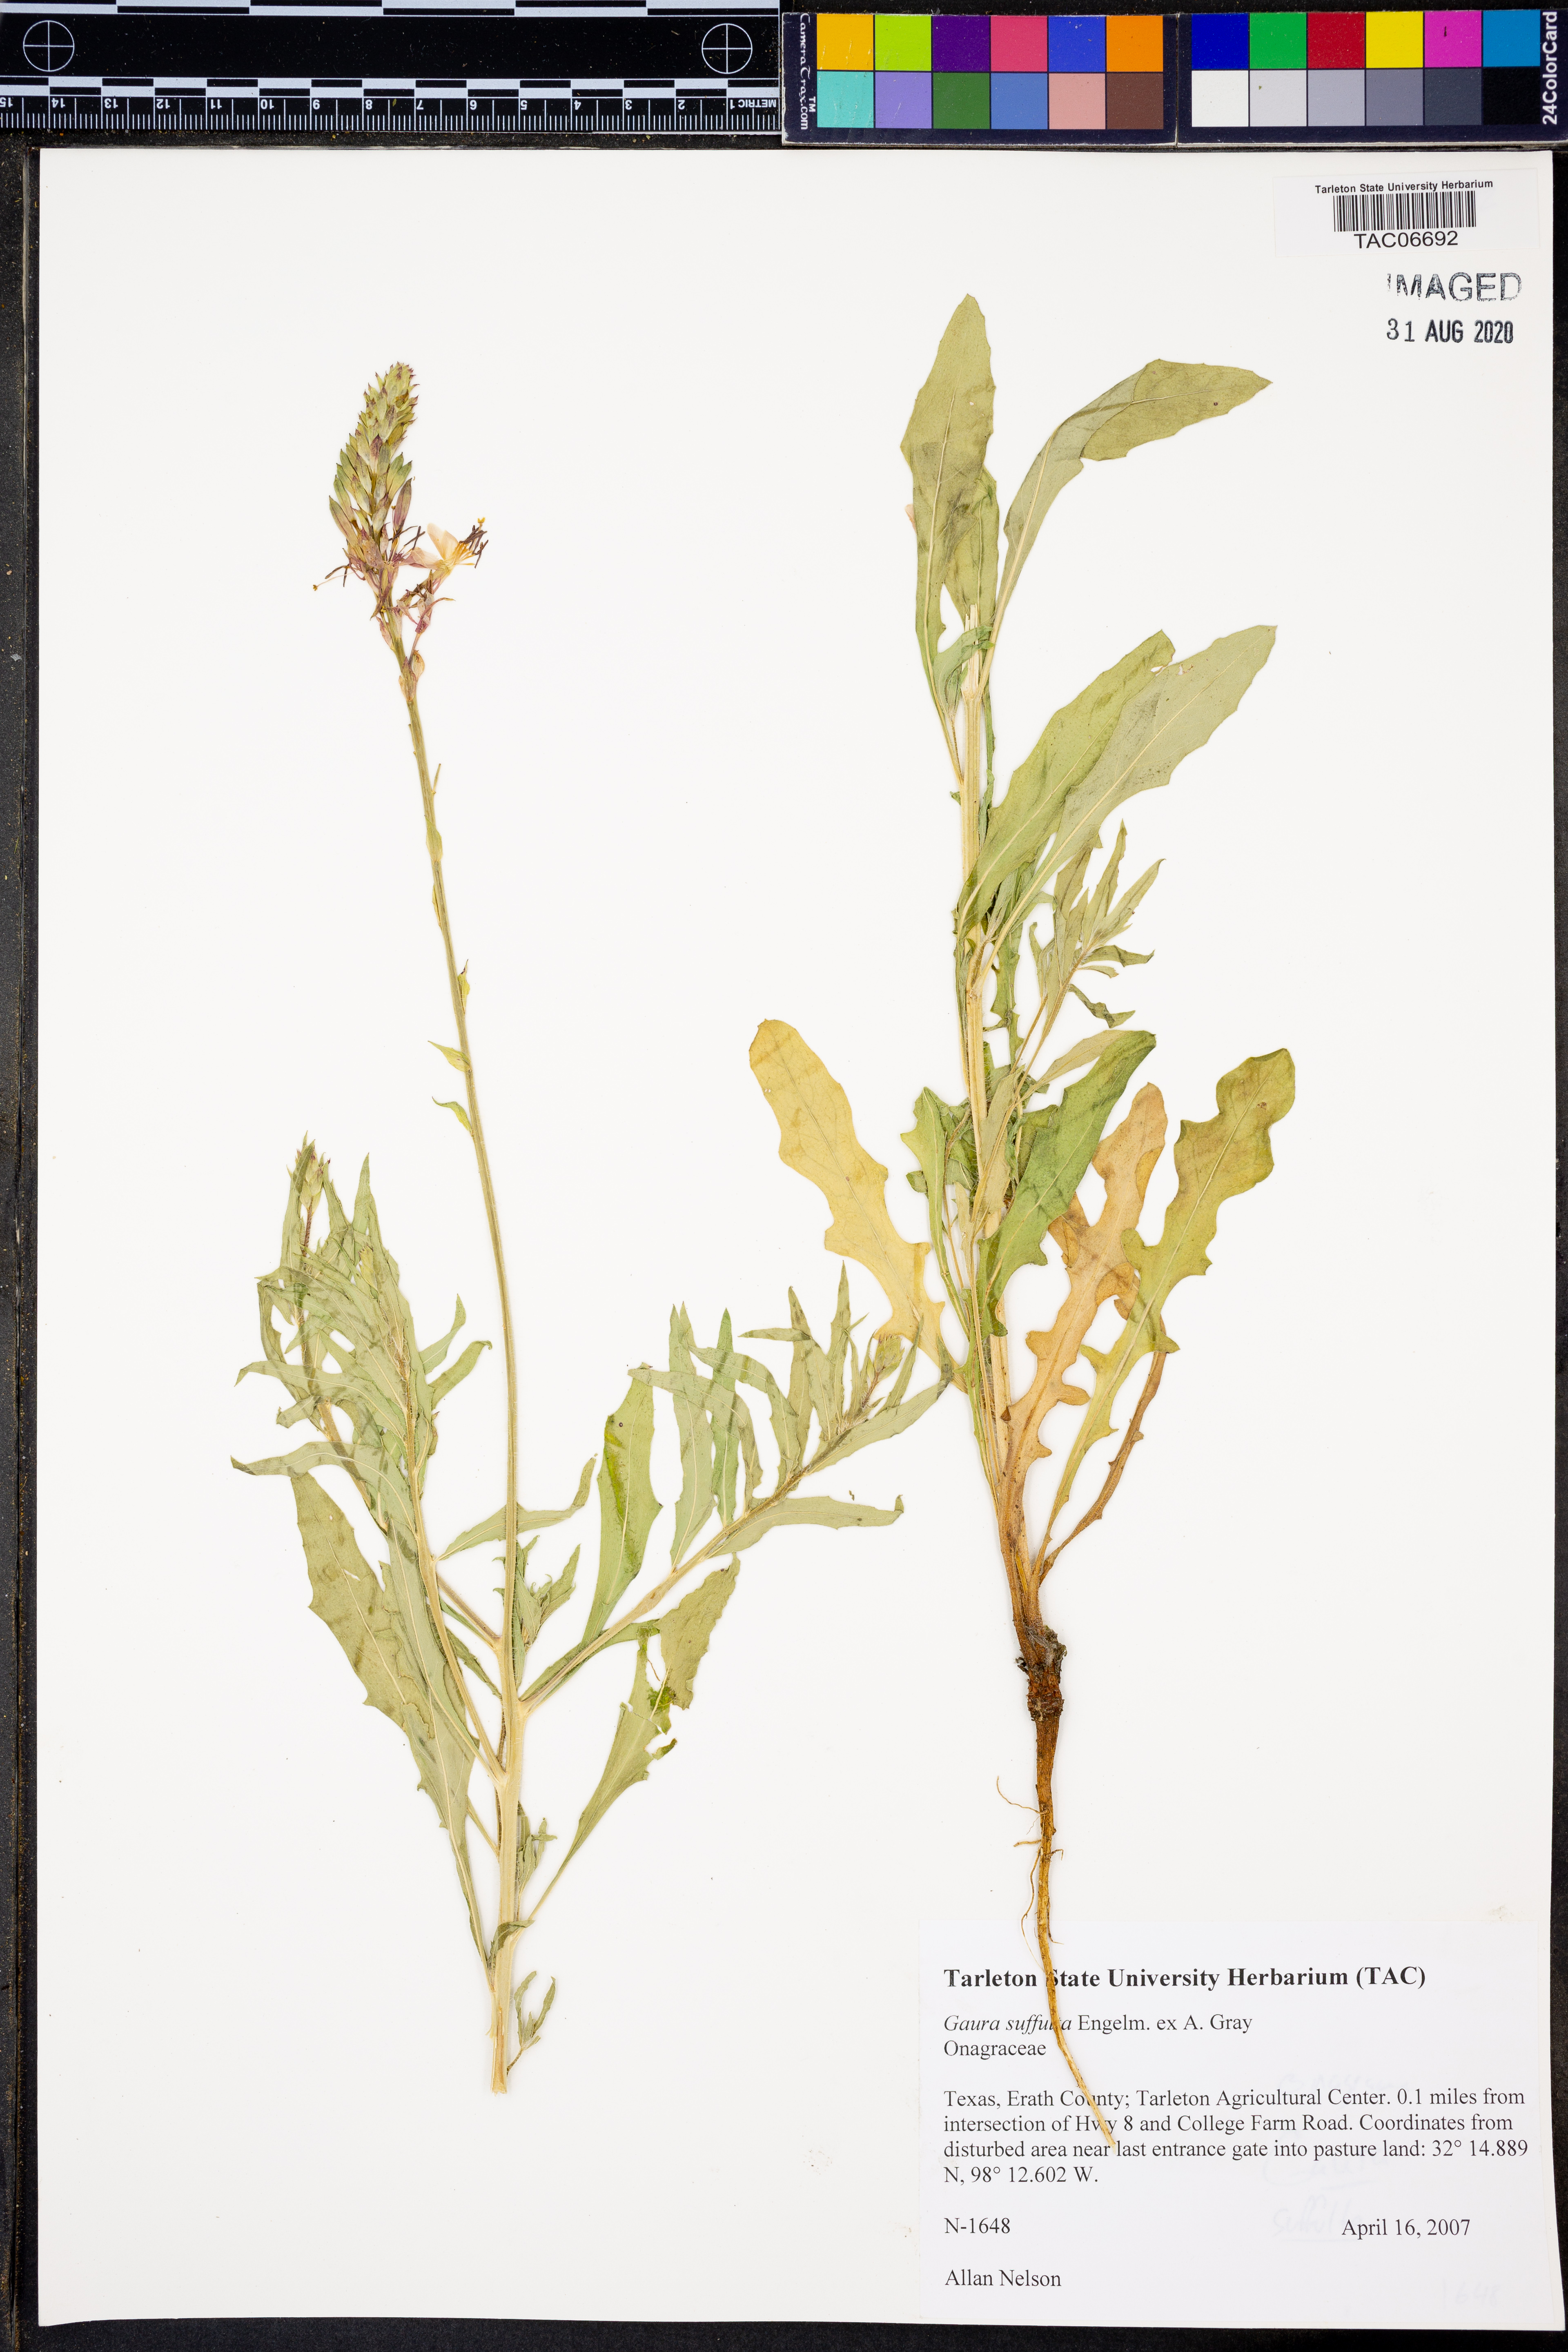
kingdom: Plantae
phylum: Tracheophyta
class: Magnoliopsida
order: Myrtales
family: Onagraceae
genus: Oenothera
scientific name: Oenothera Gaura suffulta
